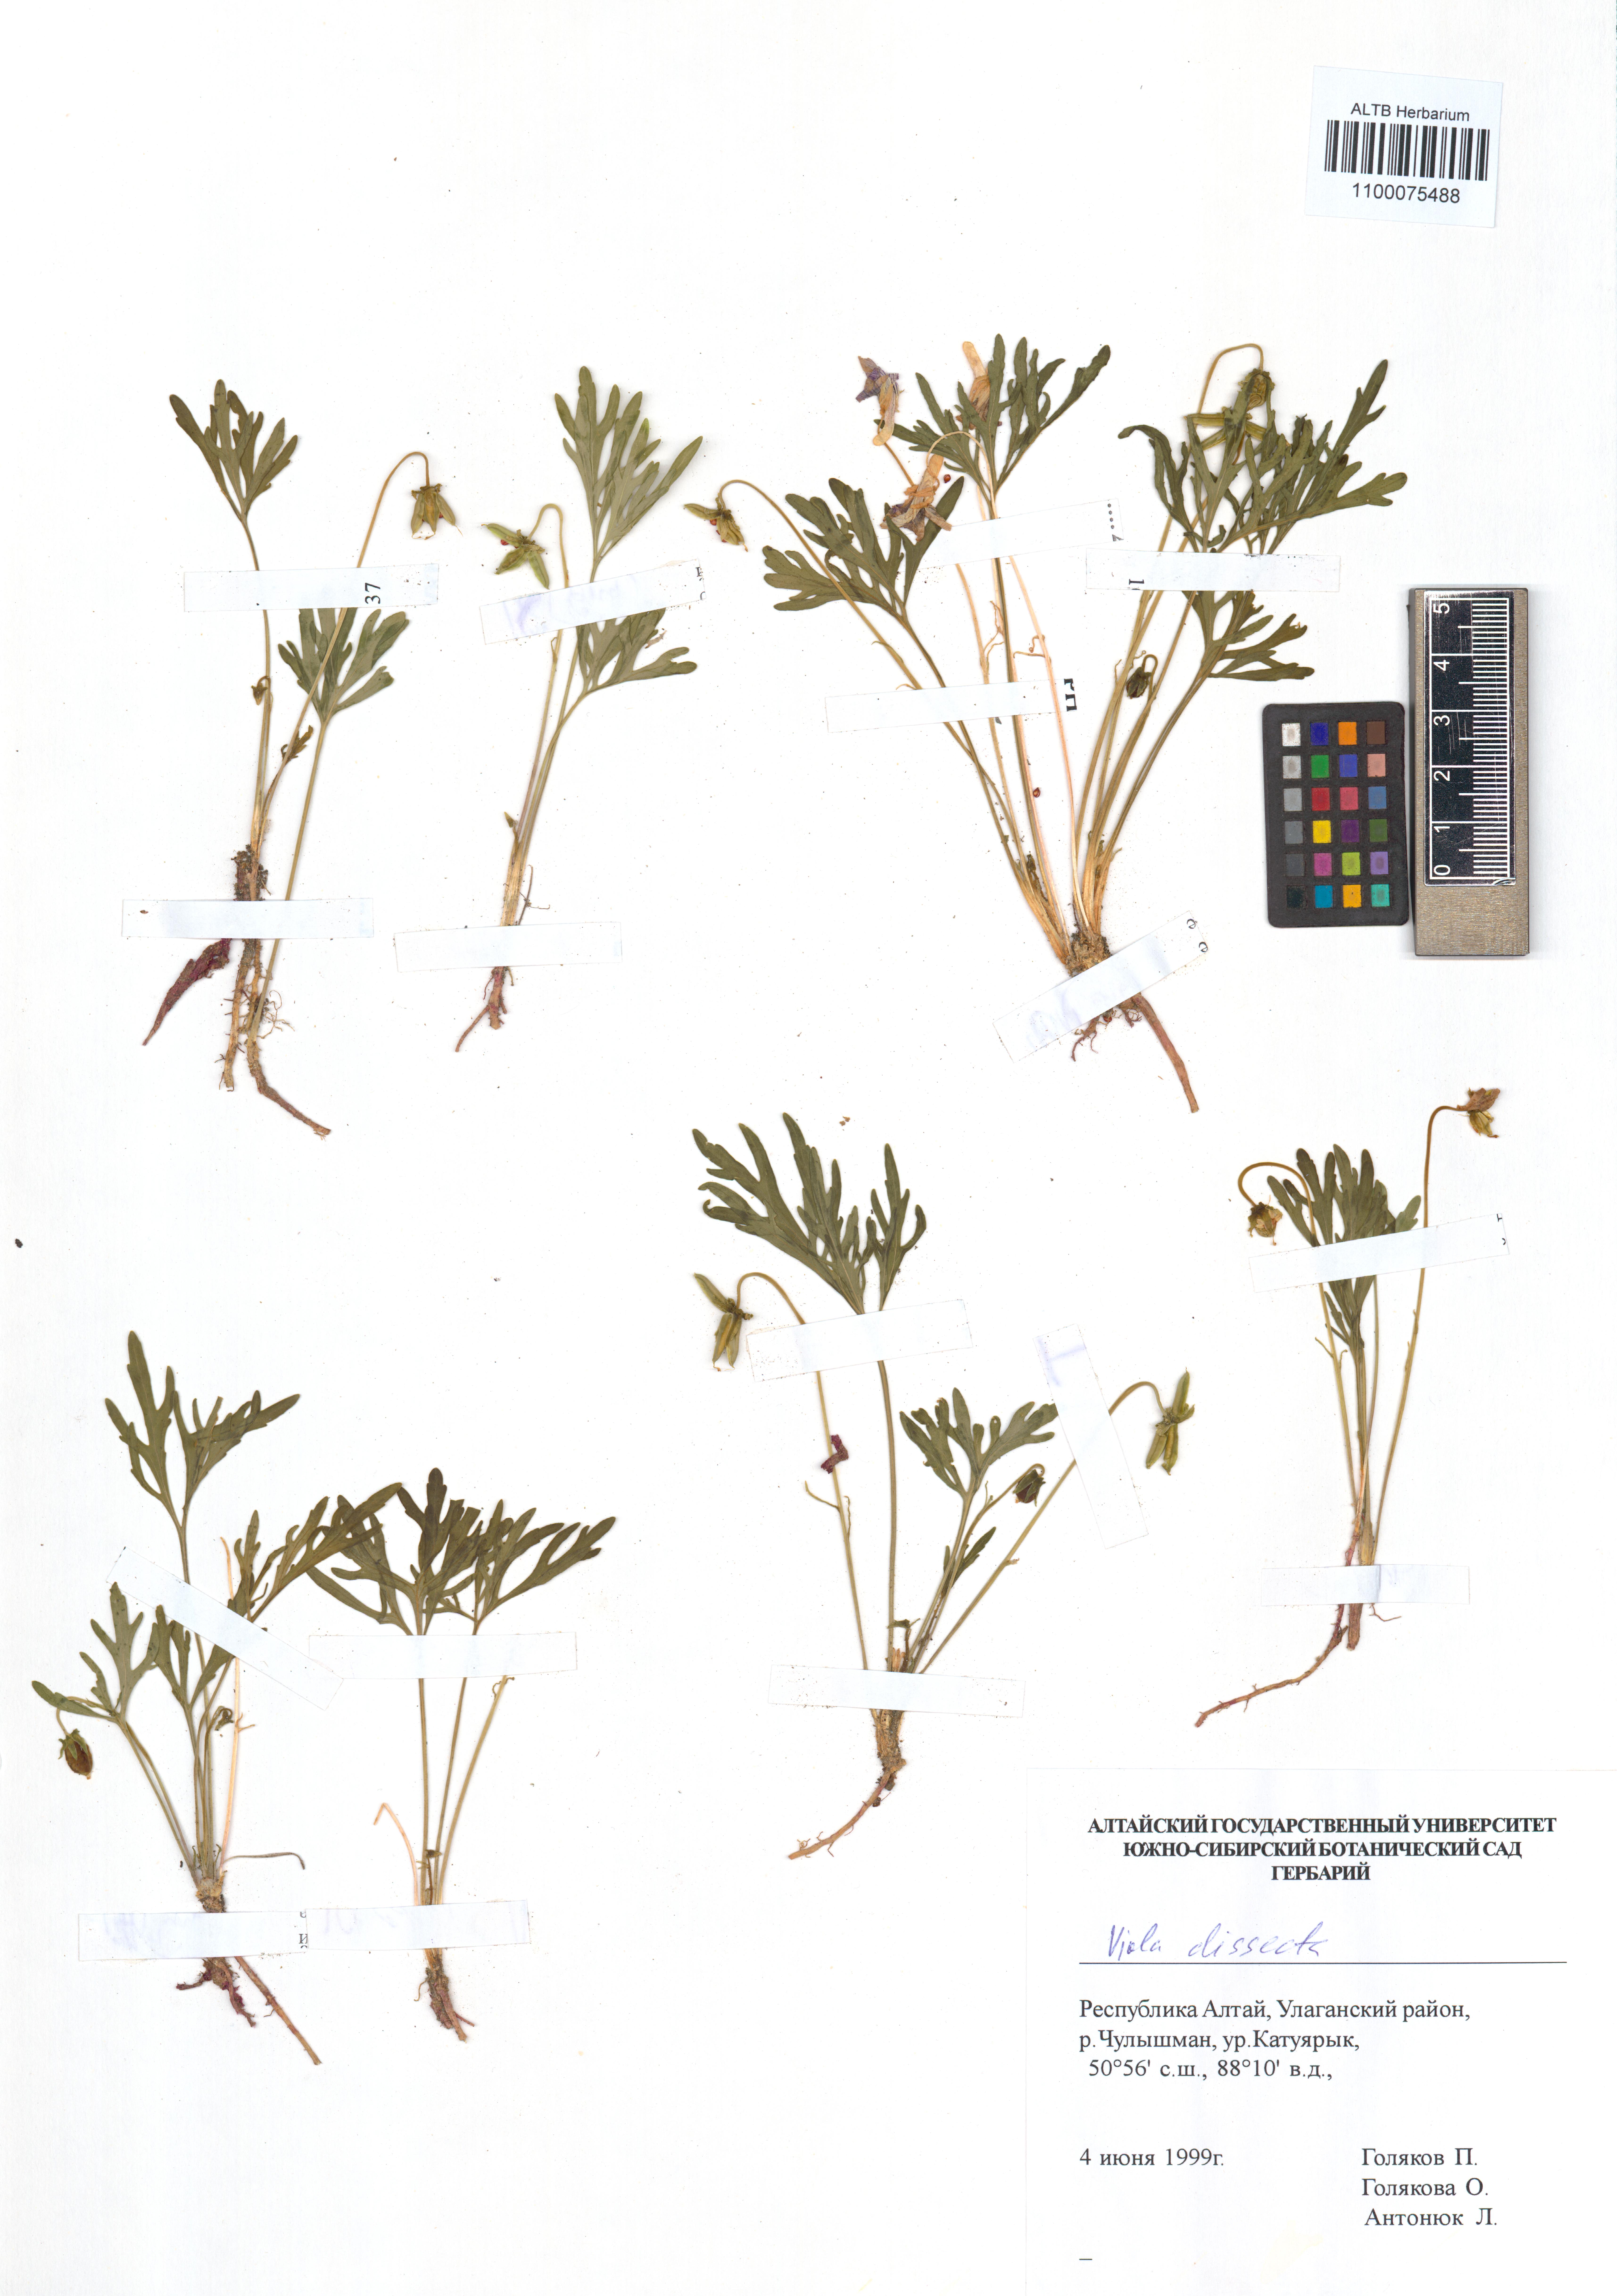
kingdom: Plantae
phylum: Tracheophyta
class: Magnoliopsida
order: Malpighiales
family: Violaceae
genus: Viola
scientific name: Viola multifida
